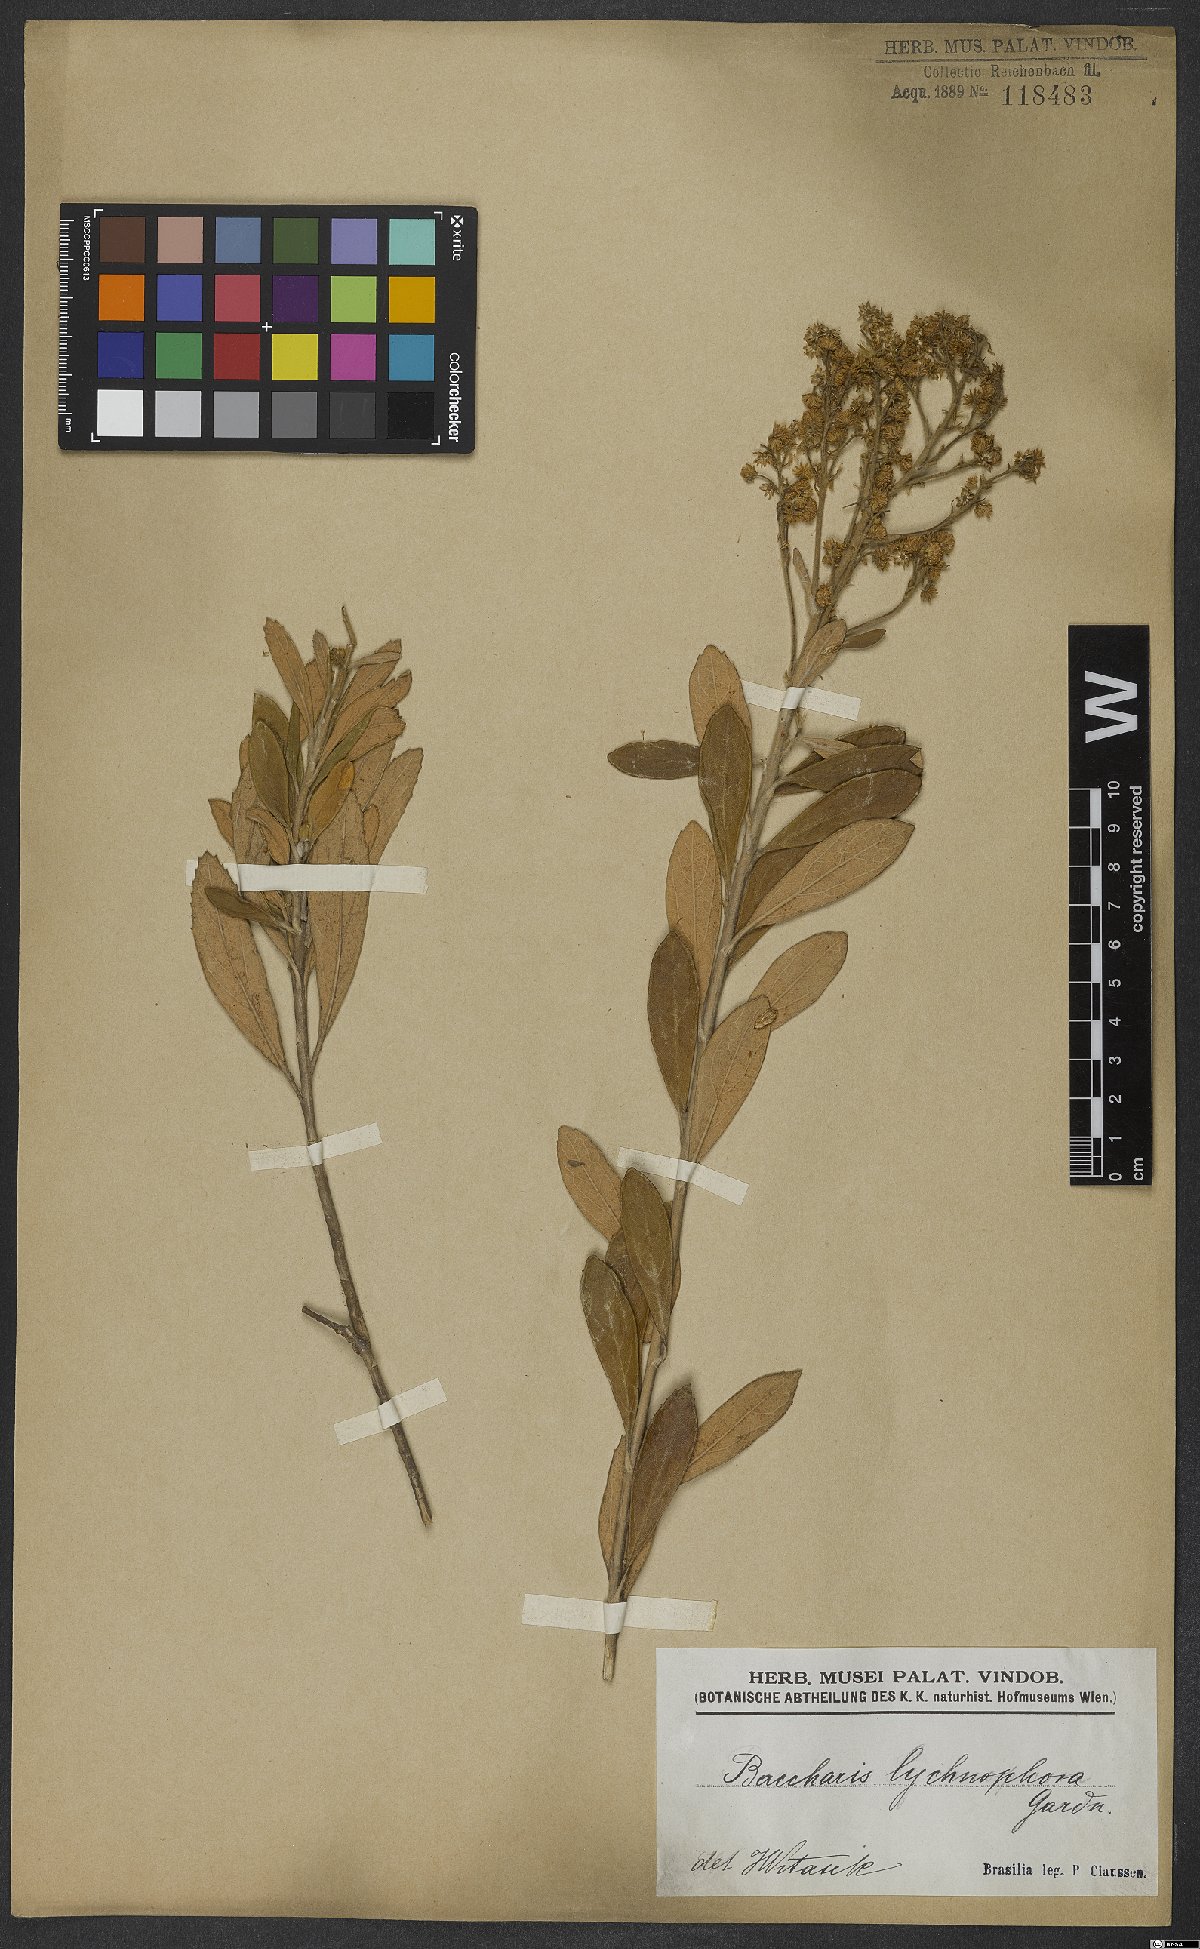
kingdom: Plantae
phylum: Tracheophyta
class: Magnoliopsida
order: Asterales
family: Asteraceae
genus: Baccharis
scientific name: Baccharis lychnophora
